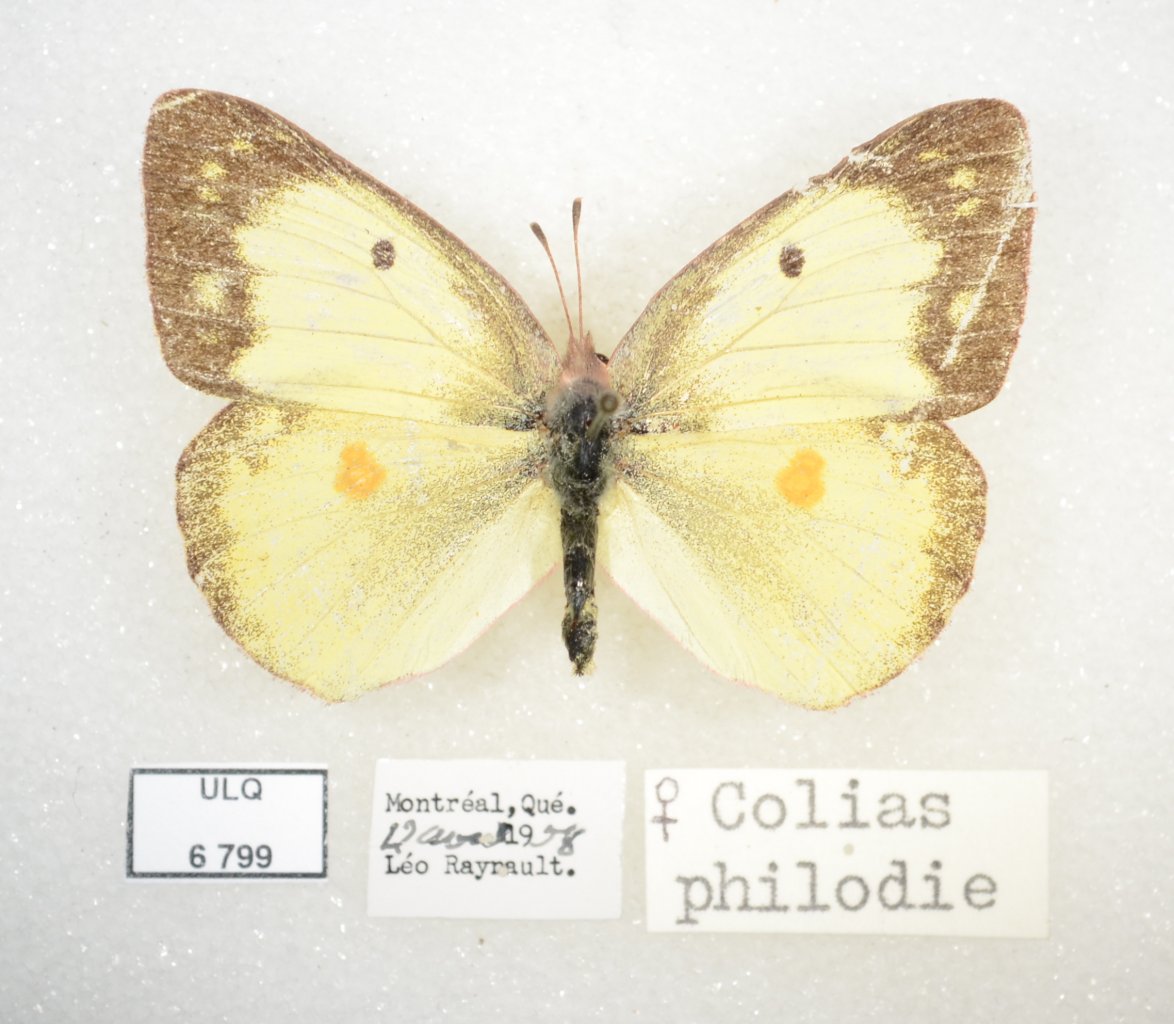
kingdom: Animalia
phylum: Arthropoda
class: Insecta
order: Lepidoptera
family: Pieridae
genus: Colias
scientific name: Colias philodice
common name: Clouded Sulphur
